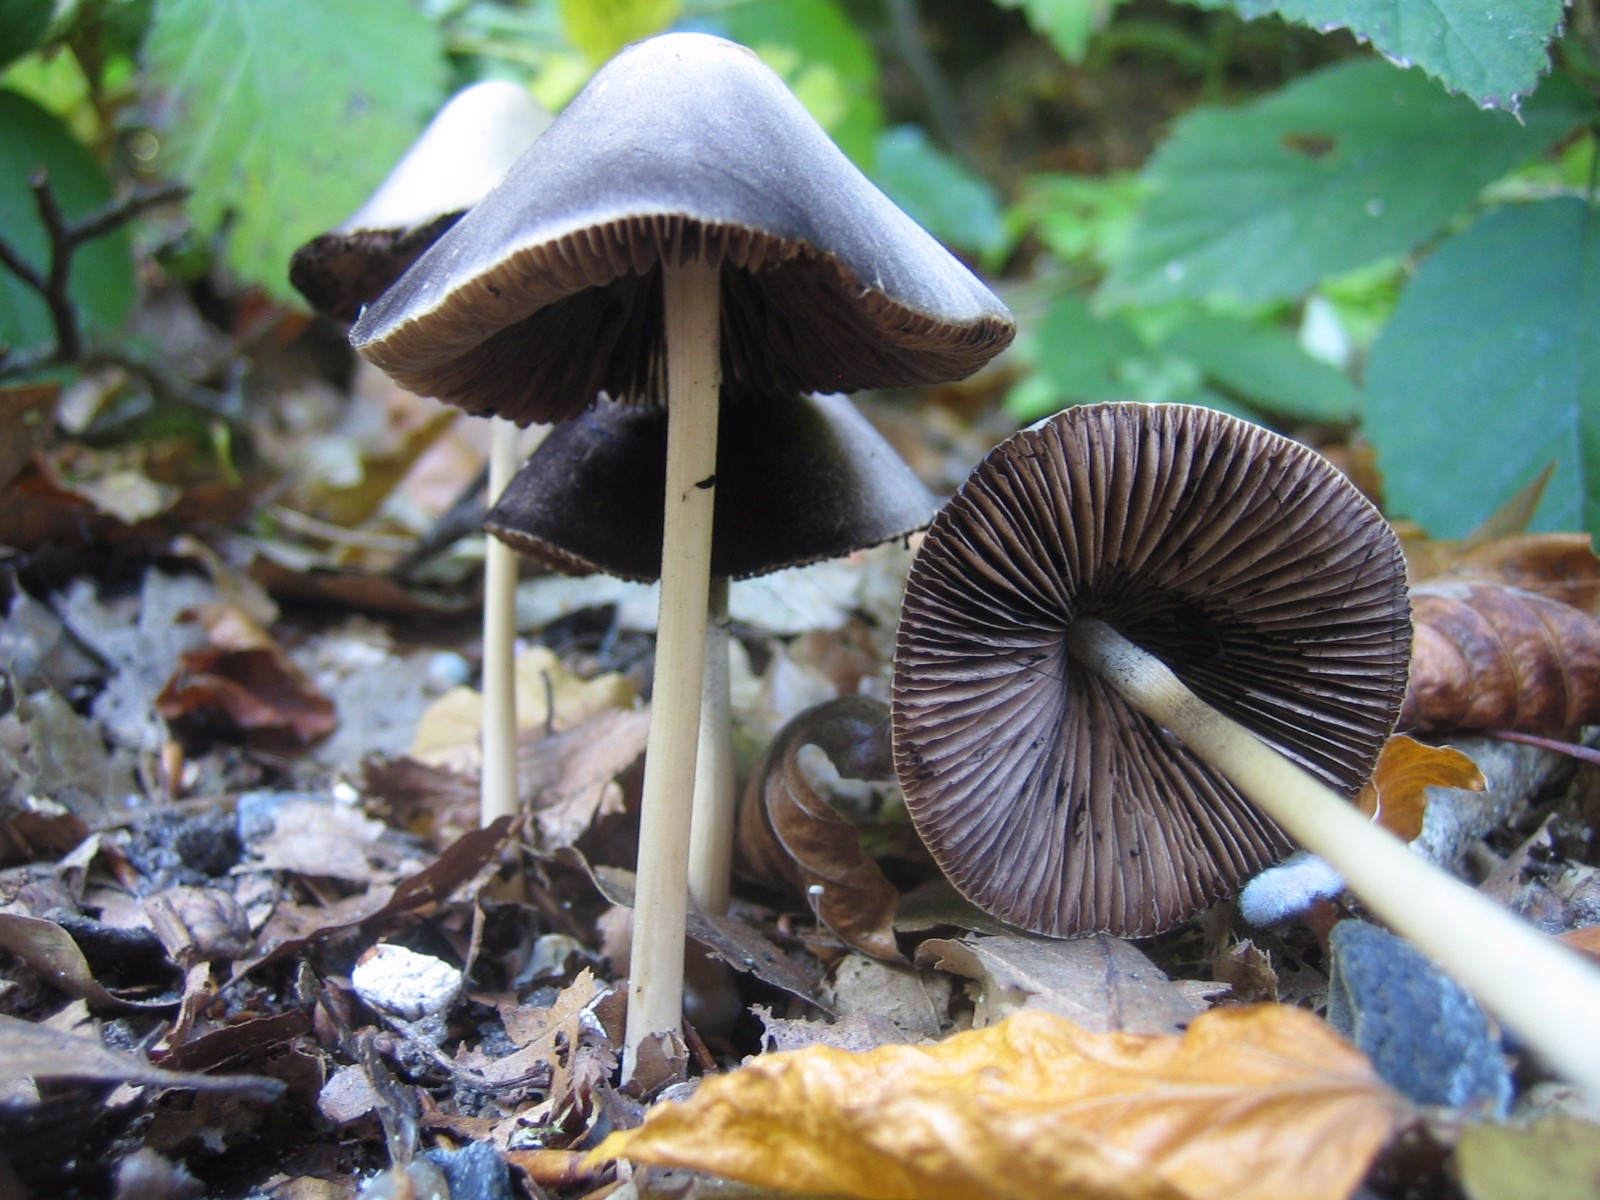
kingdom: Fungi
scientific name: Fungi
